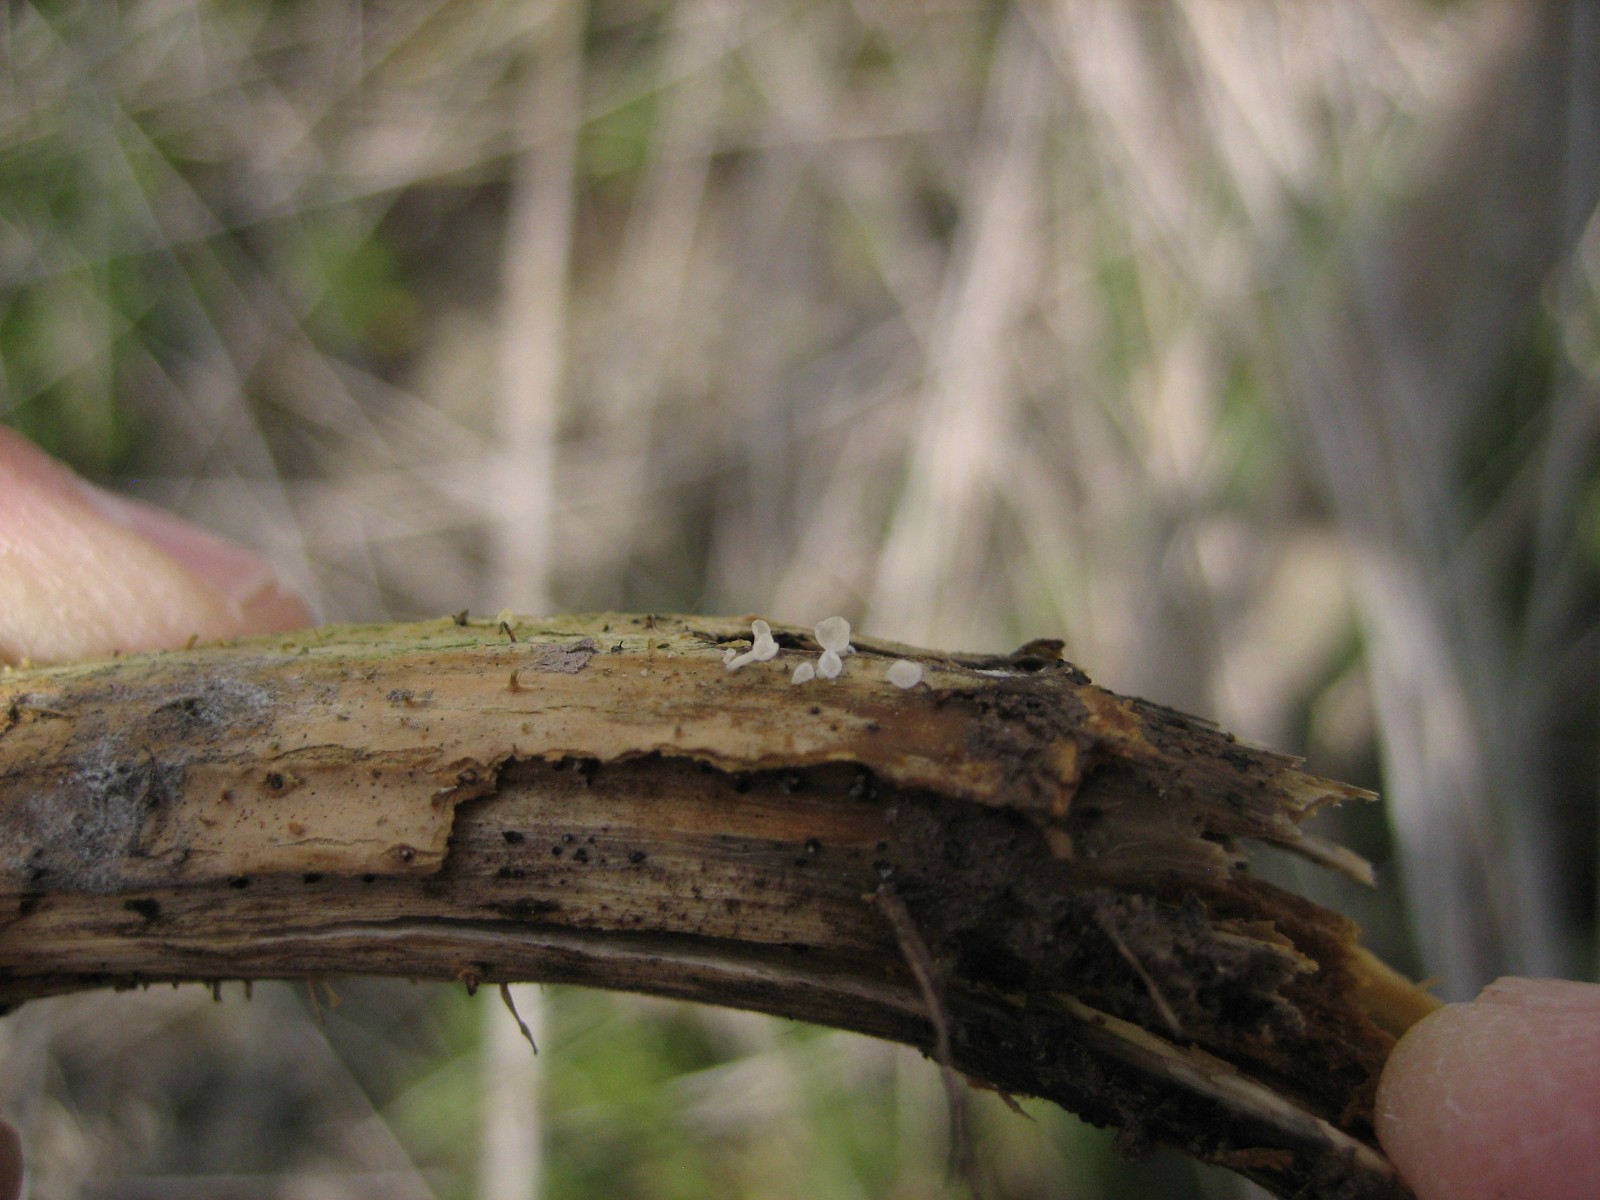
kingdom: Fungi
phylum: Basidiomycota
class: Agaricomycetes
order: Agaricales
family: Marasmiaceae
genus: Calyptella
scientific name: Calyptella capula
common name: hvidlig nældehue
